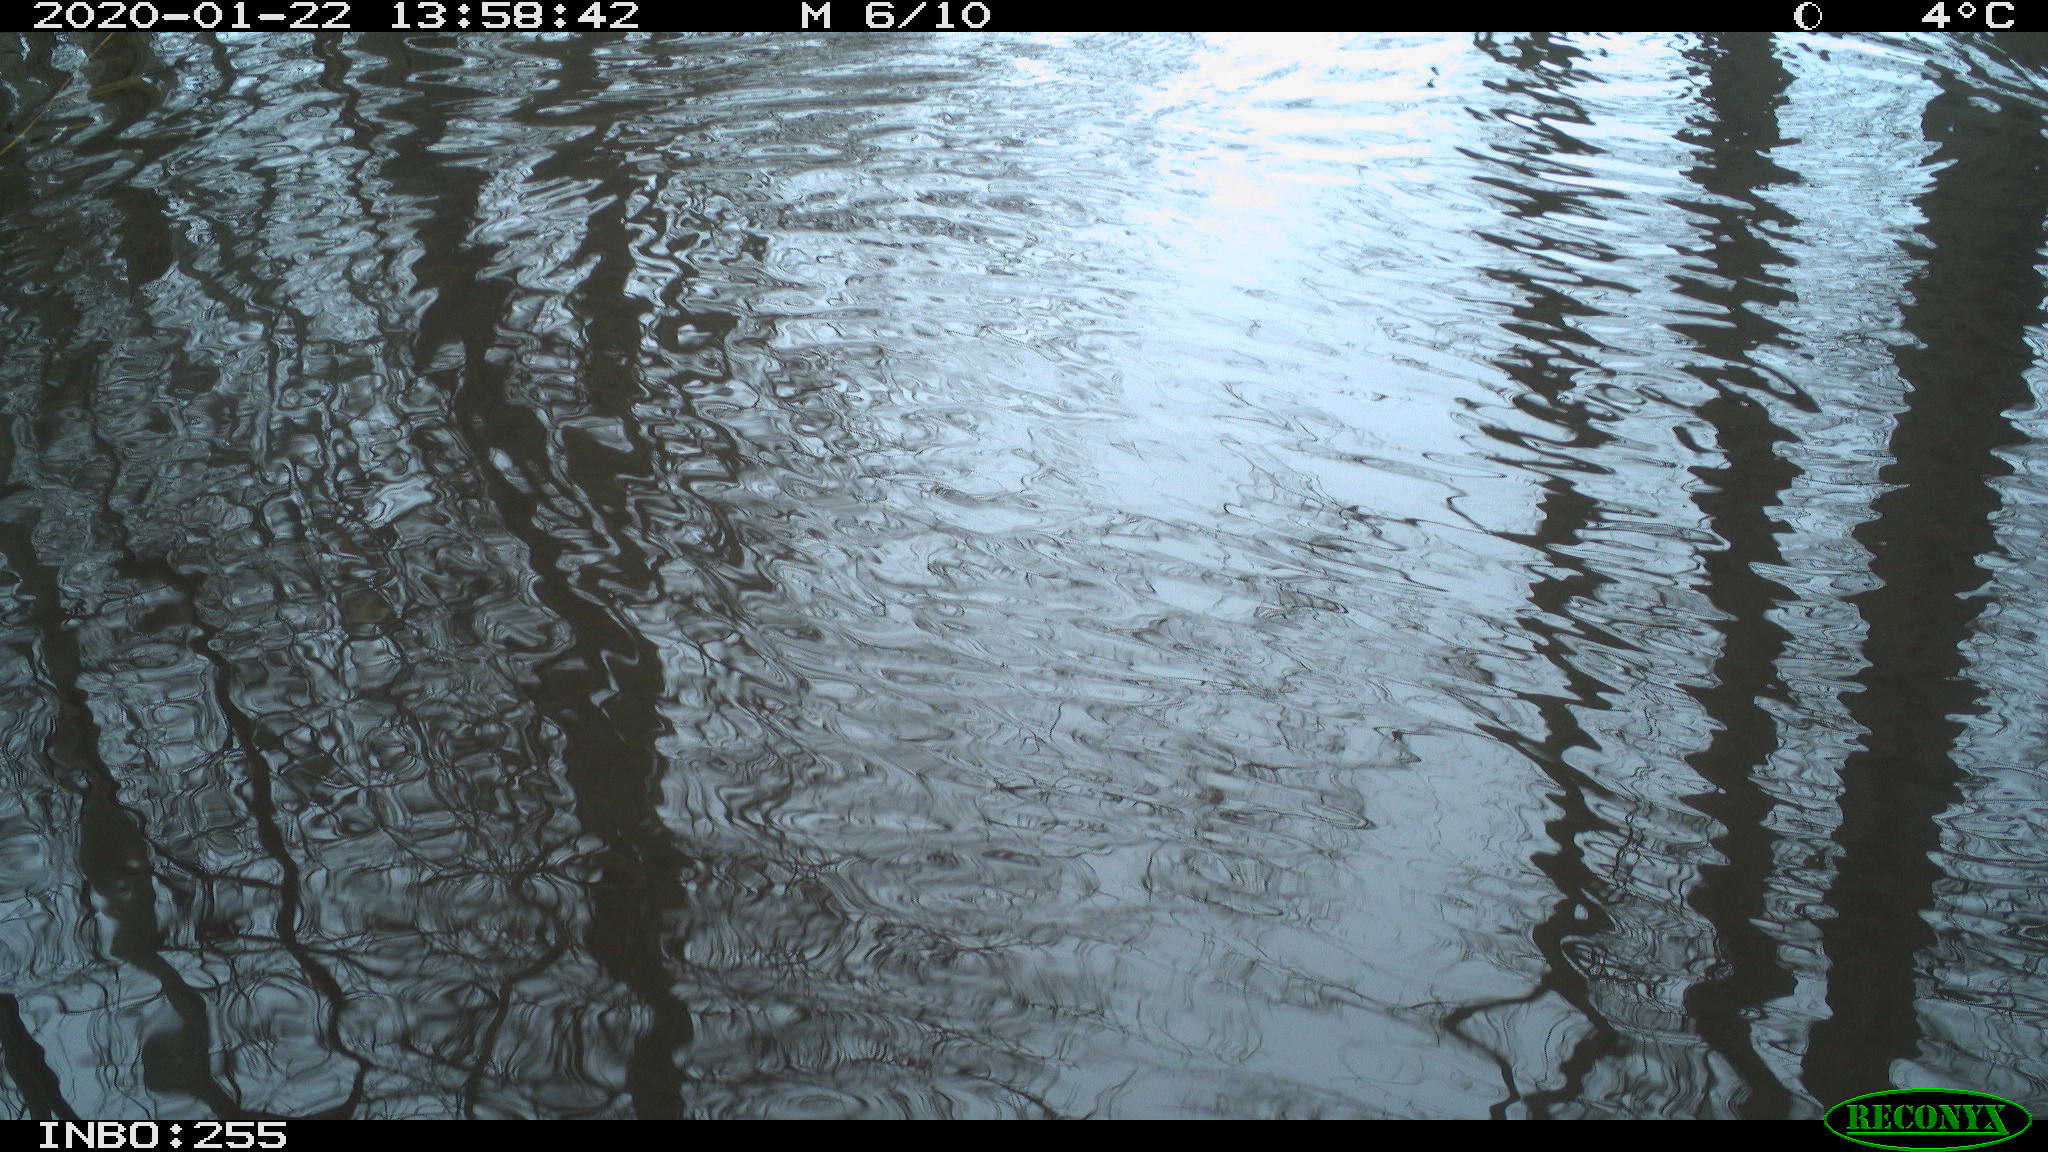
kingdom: Animalia
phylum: Chordata
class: Aves
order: Gruiformes
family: Rallidae
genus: Gallinula
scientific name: Gallinula chloropus
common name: Common moorhen
